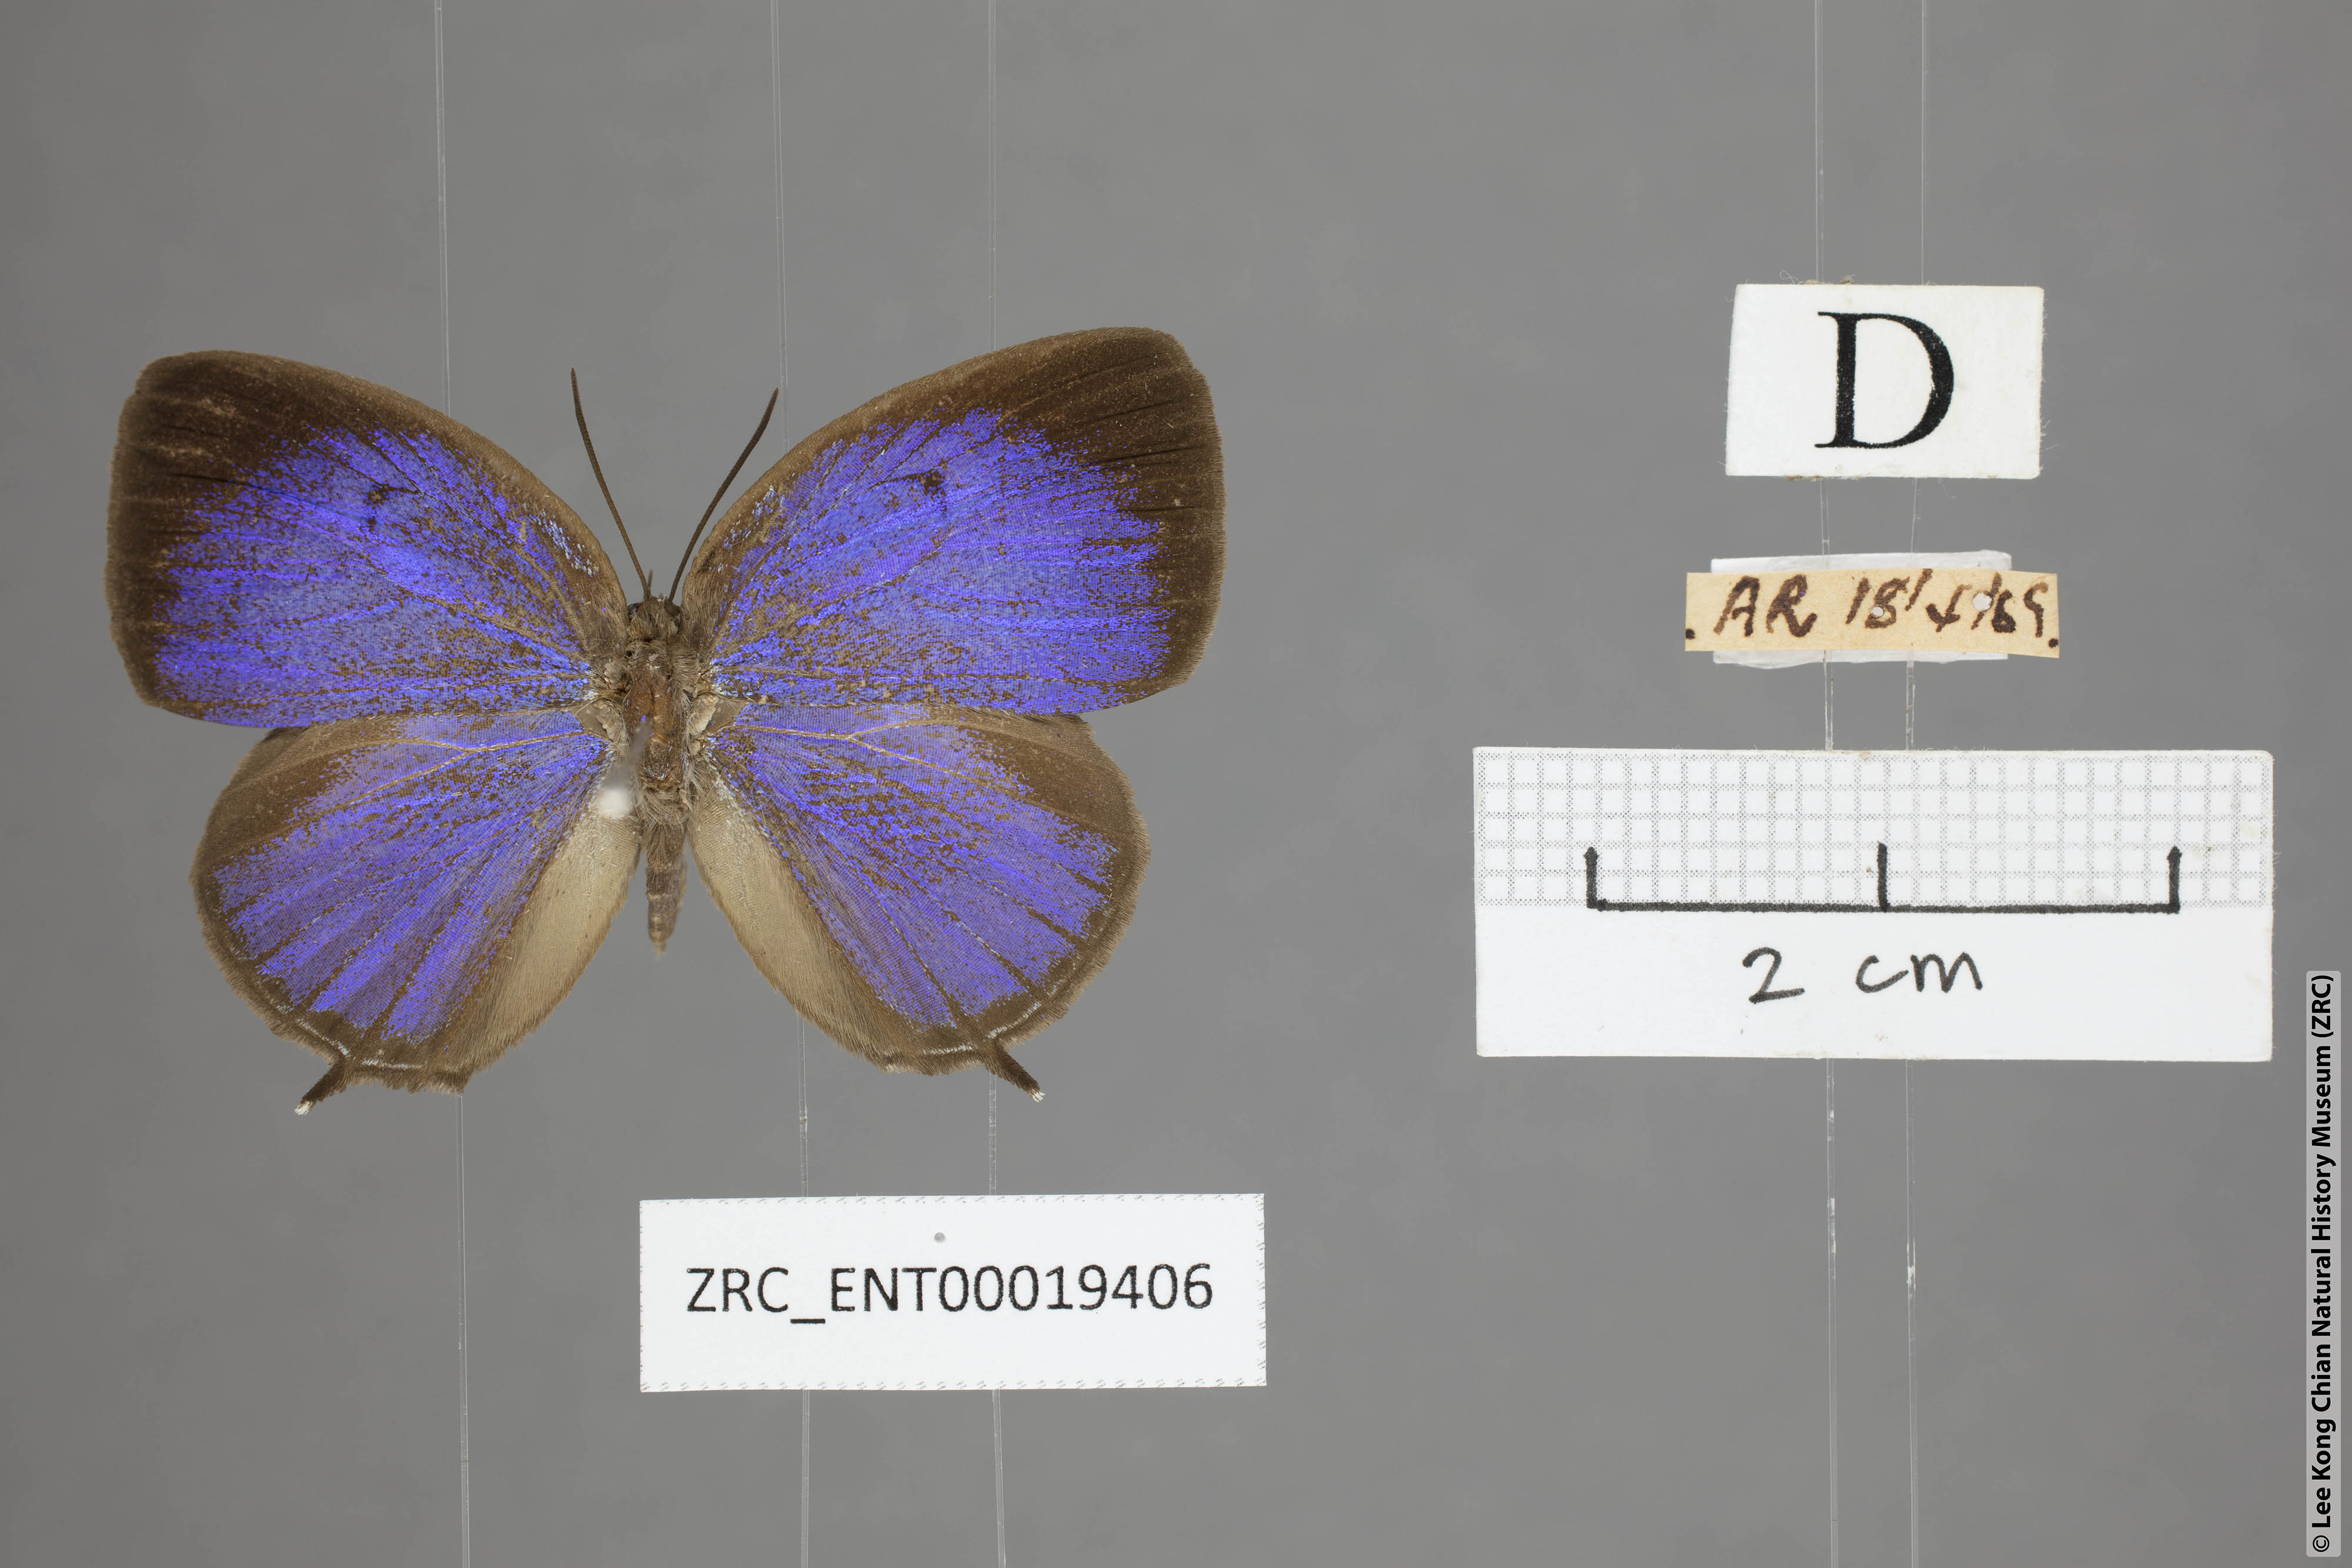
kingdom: Animalia
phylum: Arthropoda
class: Insecta
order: Lepidoptera
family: Lycaenidae
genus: Arhopala
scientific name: Arhopala democritus
